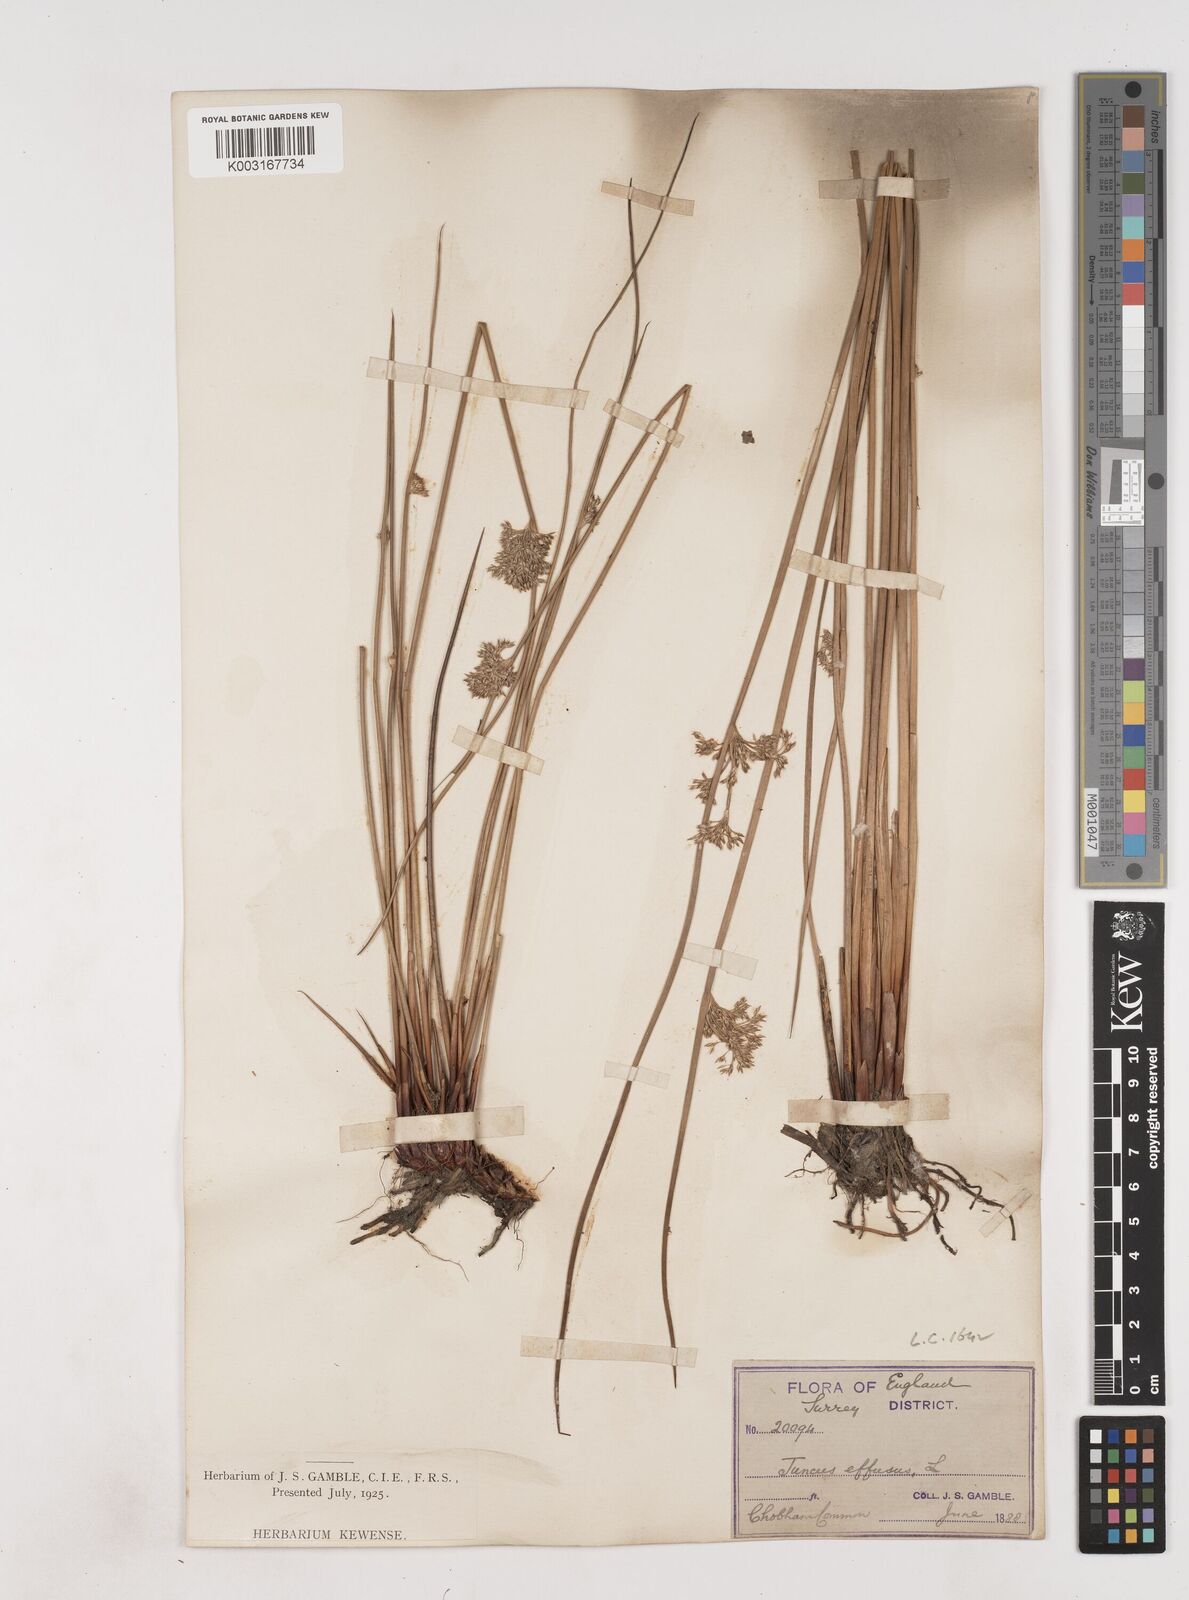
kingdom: Plantae
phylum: Tracheophyta
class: Liliopsida
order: Poales
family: Juncaceae
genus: Juncus
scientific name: Juncus effusus
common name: Soft rush
